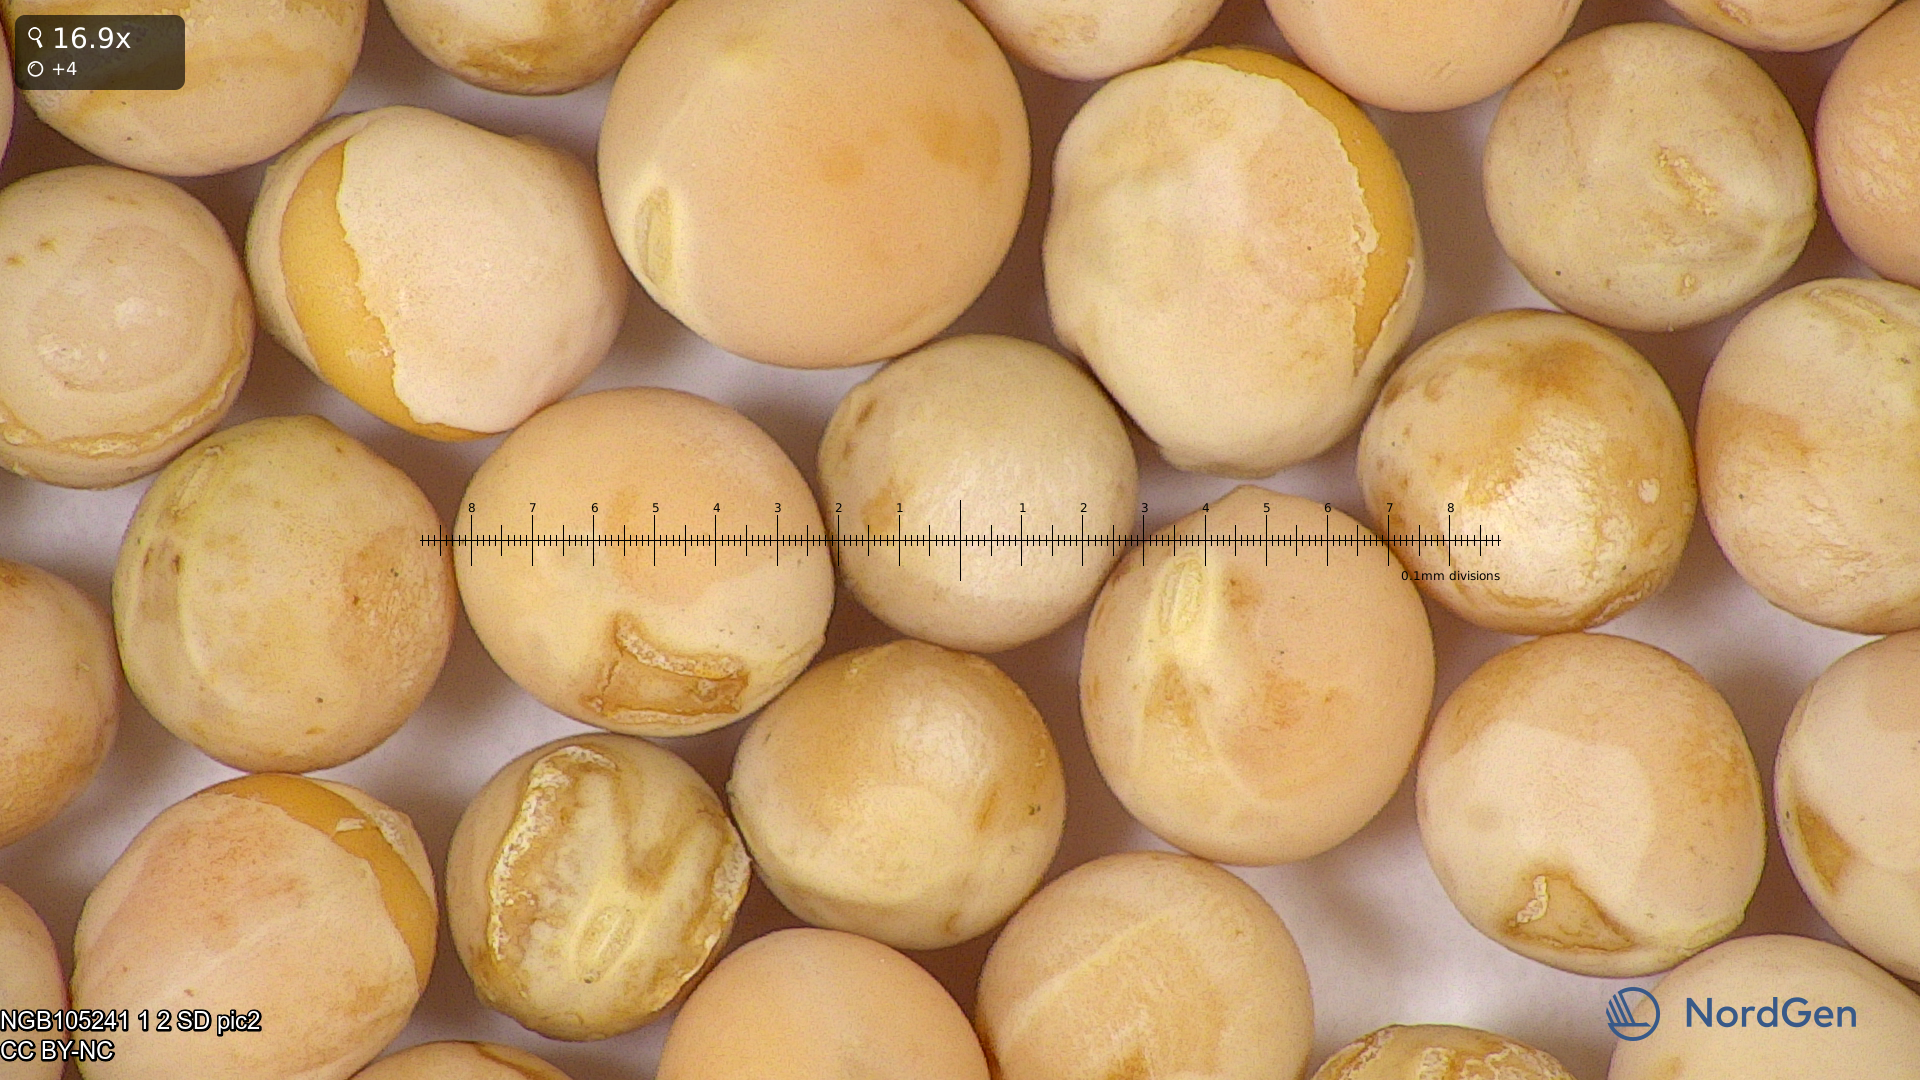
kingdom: Plantae
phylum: Tracheophyta
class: Magnoliopsida
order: Fabales
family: Fabaceae
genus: Lathyrus
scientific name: Lathyrus oleraceus
